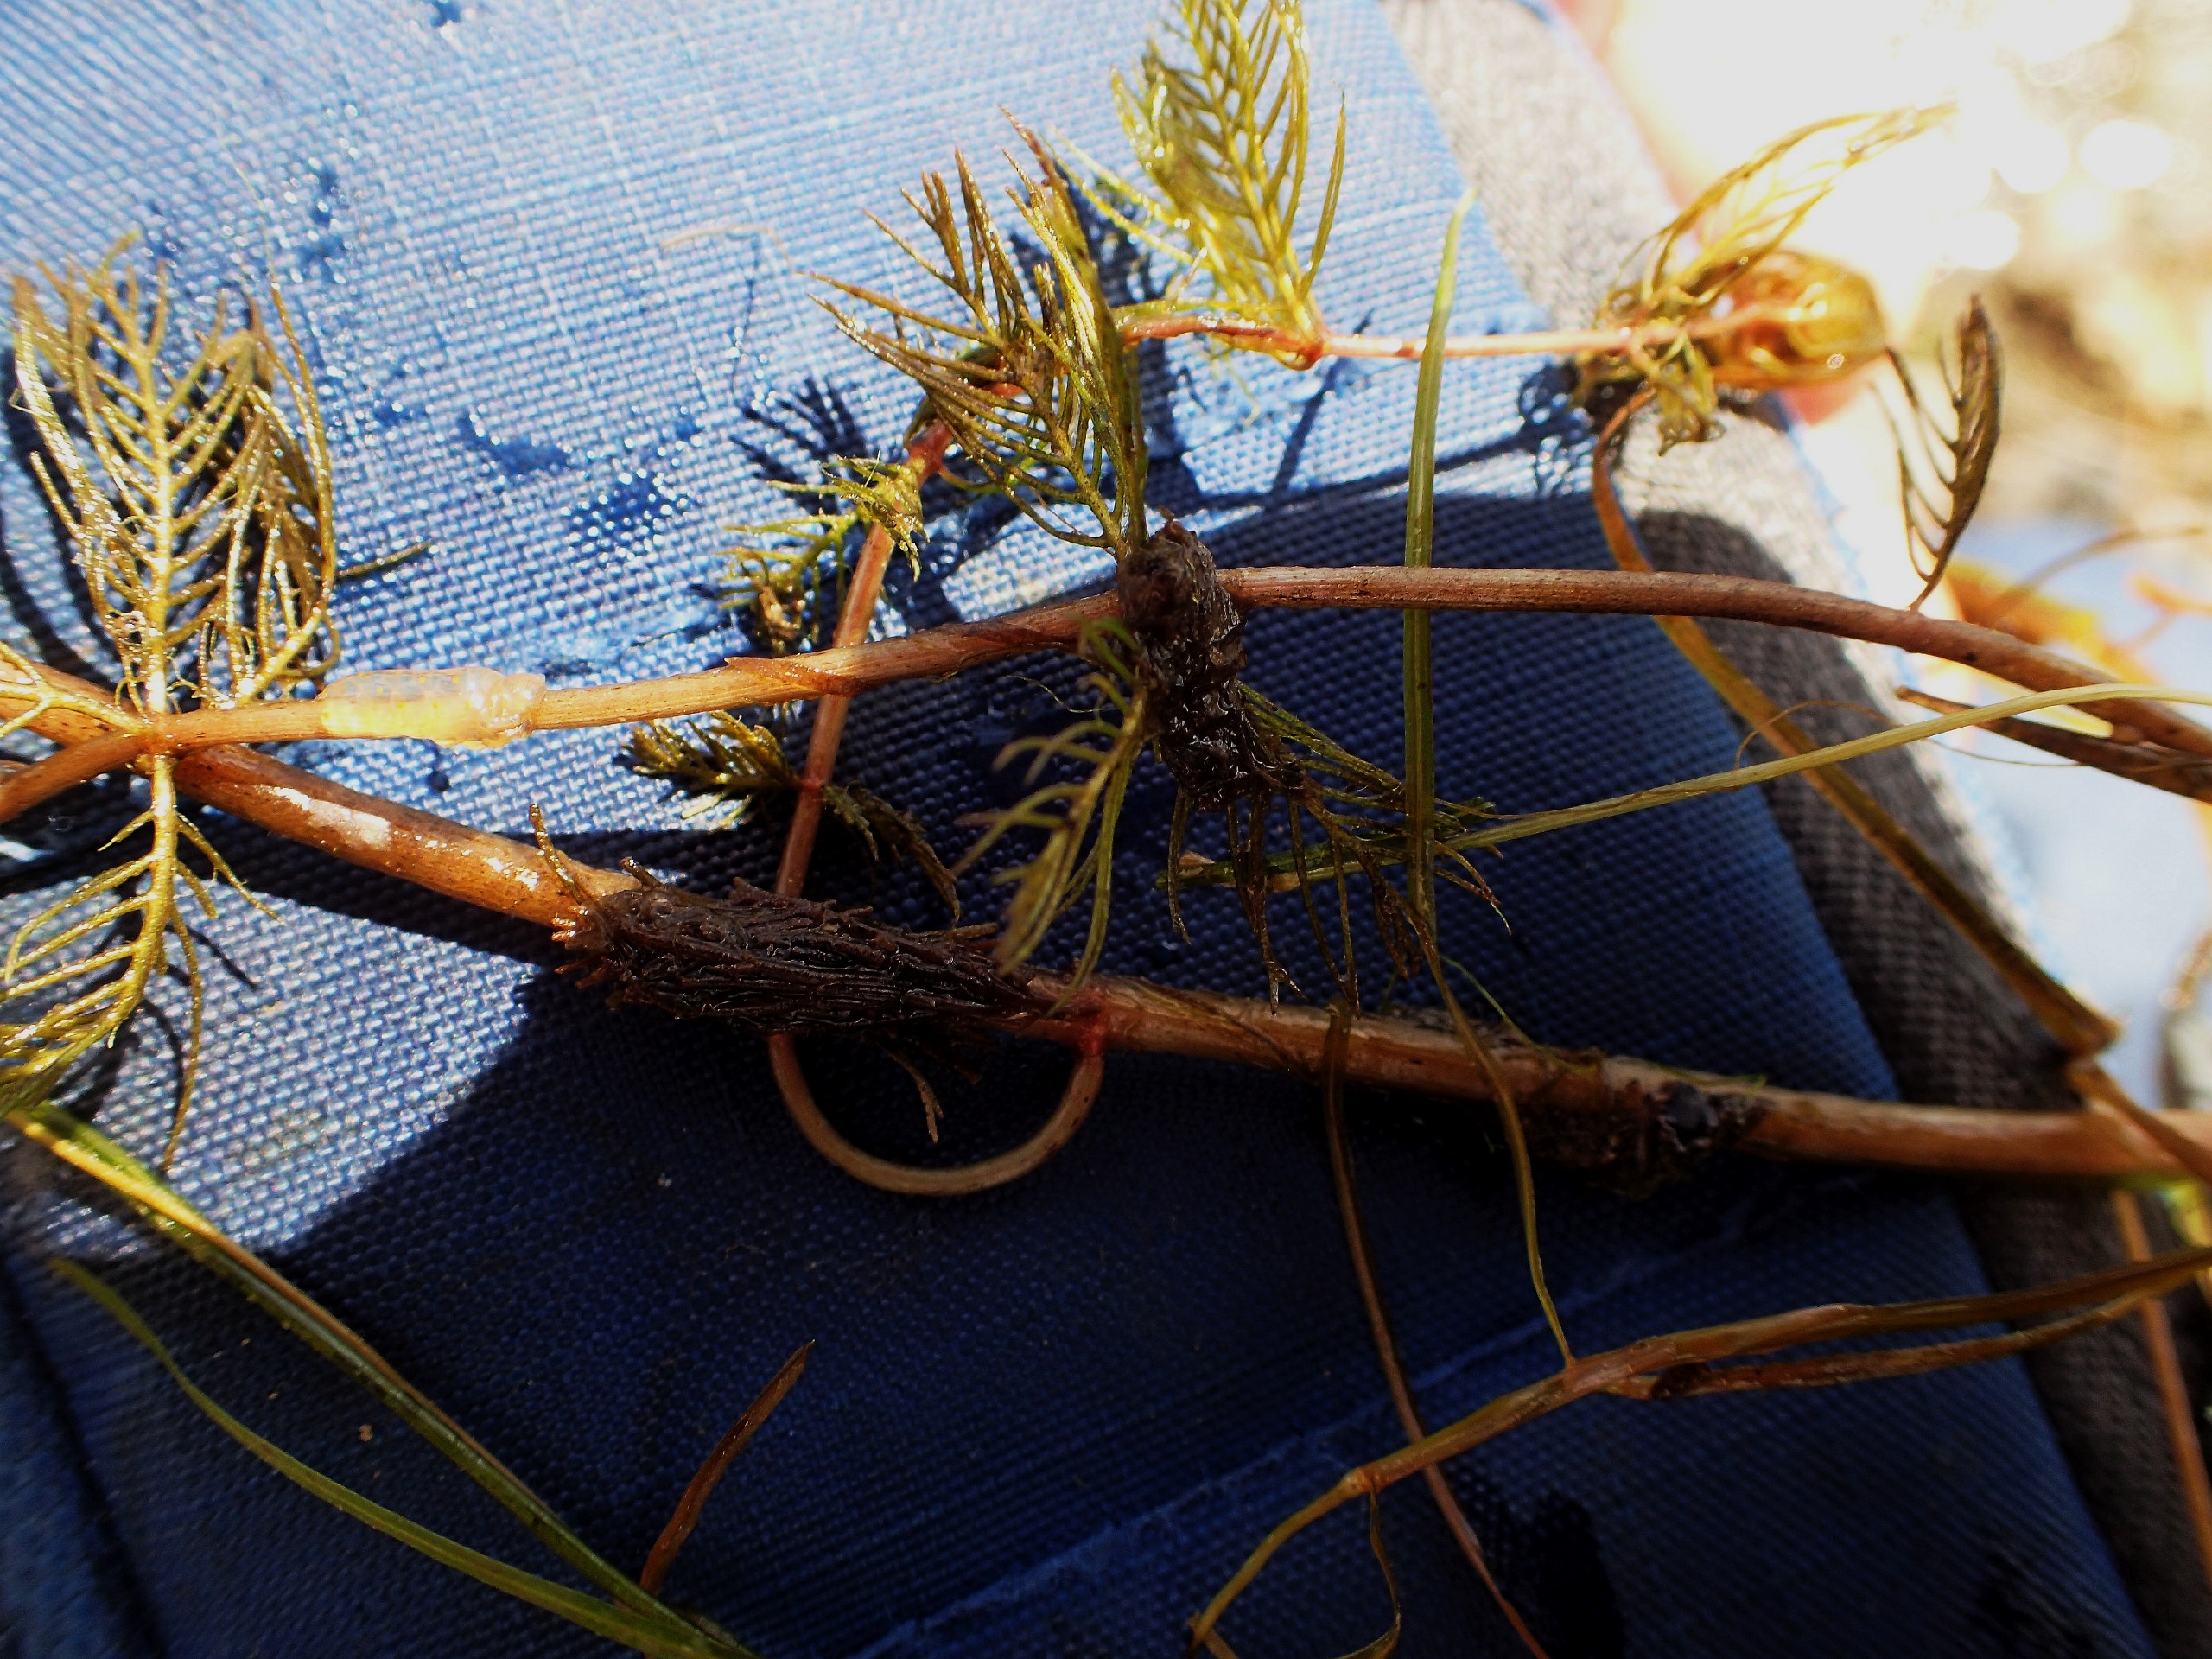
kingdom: Plantae
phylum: Tracheophyta
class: Magnoliopsida
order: Saxifragales
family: Haloragaceae
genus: Myriophyllum
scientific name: Myriophyllum spicatum
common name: Aks-tusindblad
